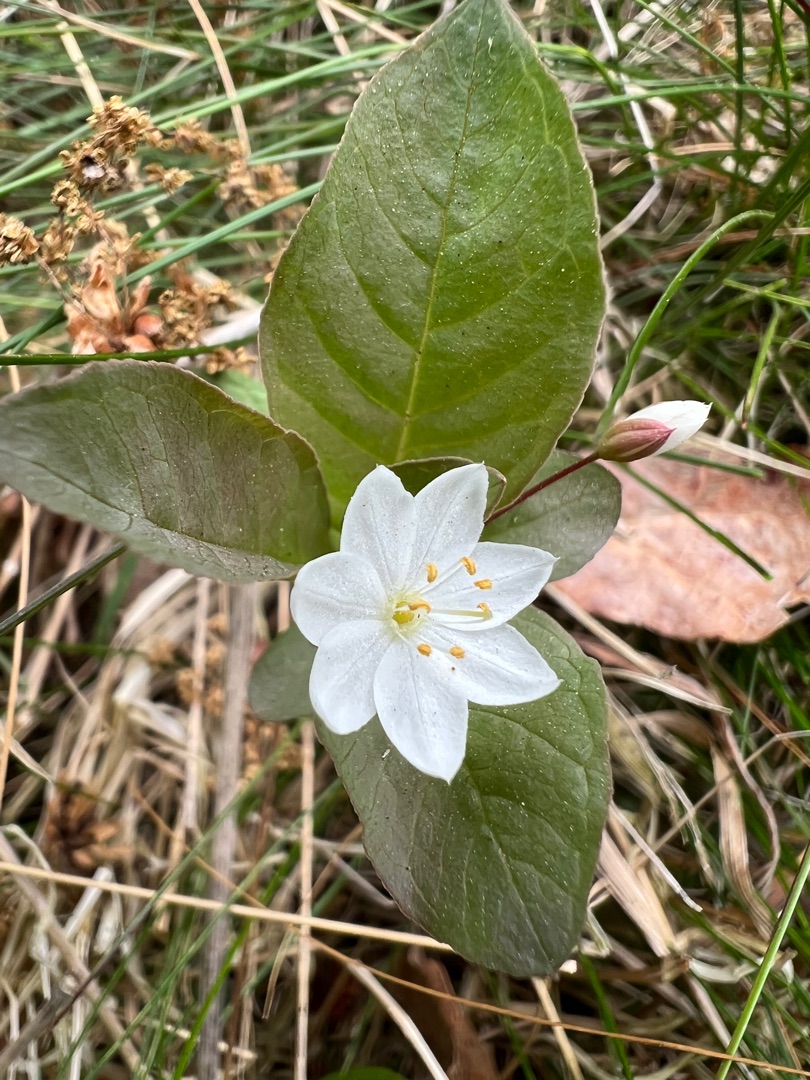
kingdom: Plantae
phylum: Tracheophyta
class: Magnoliopsida
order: Ericales
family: Primulaceae
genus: Lysimachia
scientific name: Lysimachia europaea
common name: Skovstjerne
